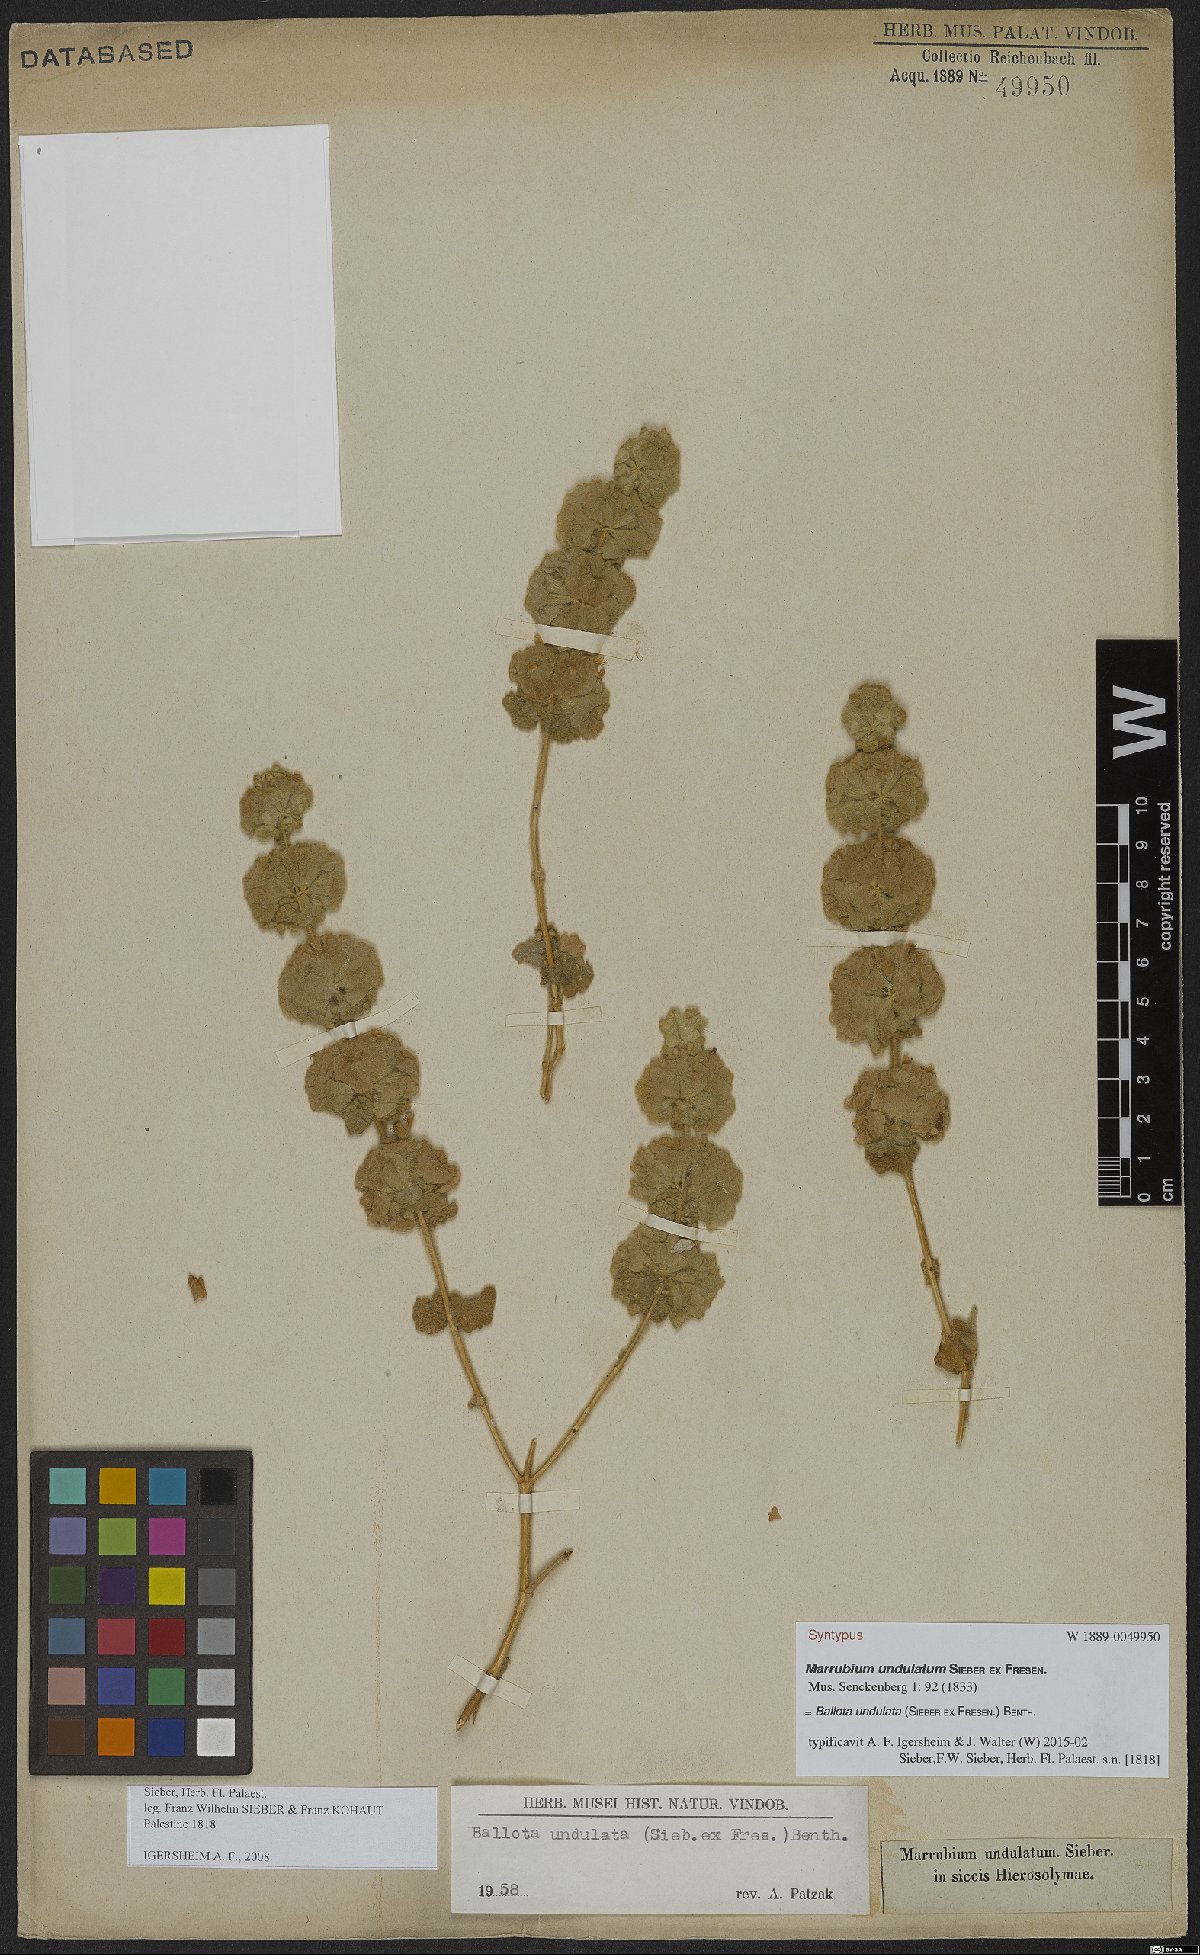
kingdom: Plantae
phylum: Tracheophyta
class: Magnoliopsida
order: Lamiales
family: Lamiaceae
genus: Pseudodictamnus
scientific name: Pseudodictamnus undulatus
